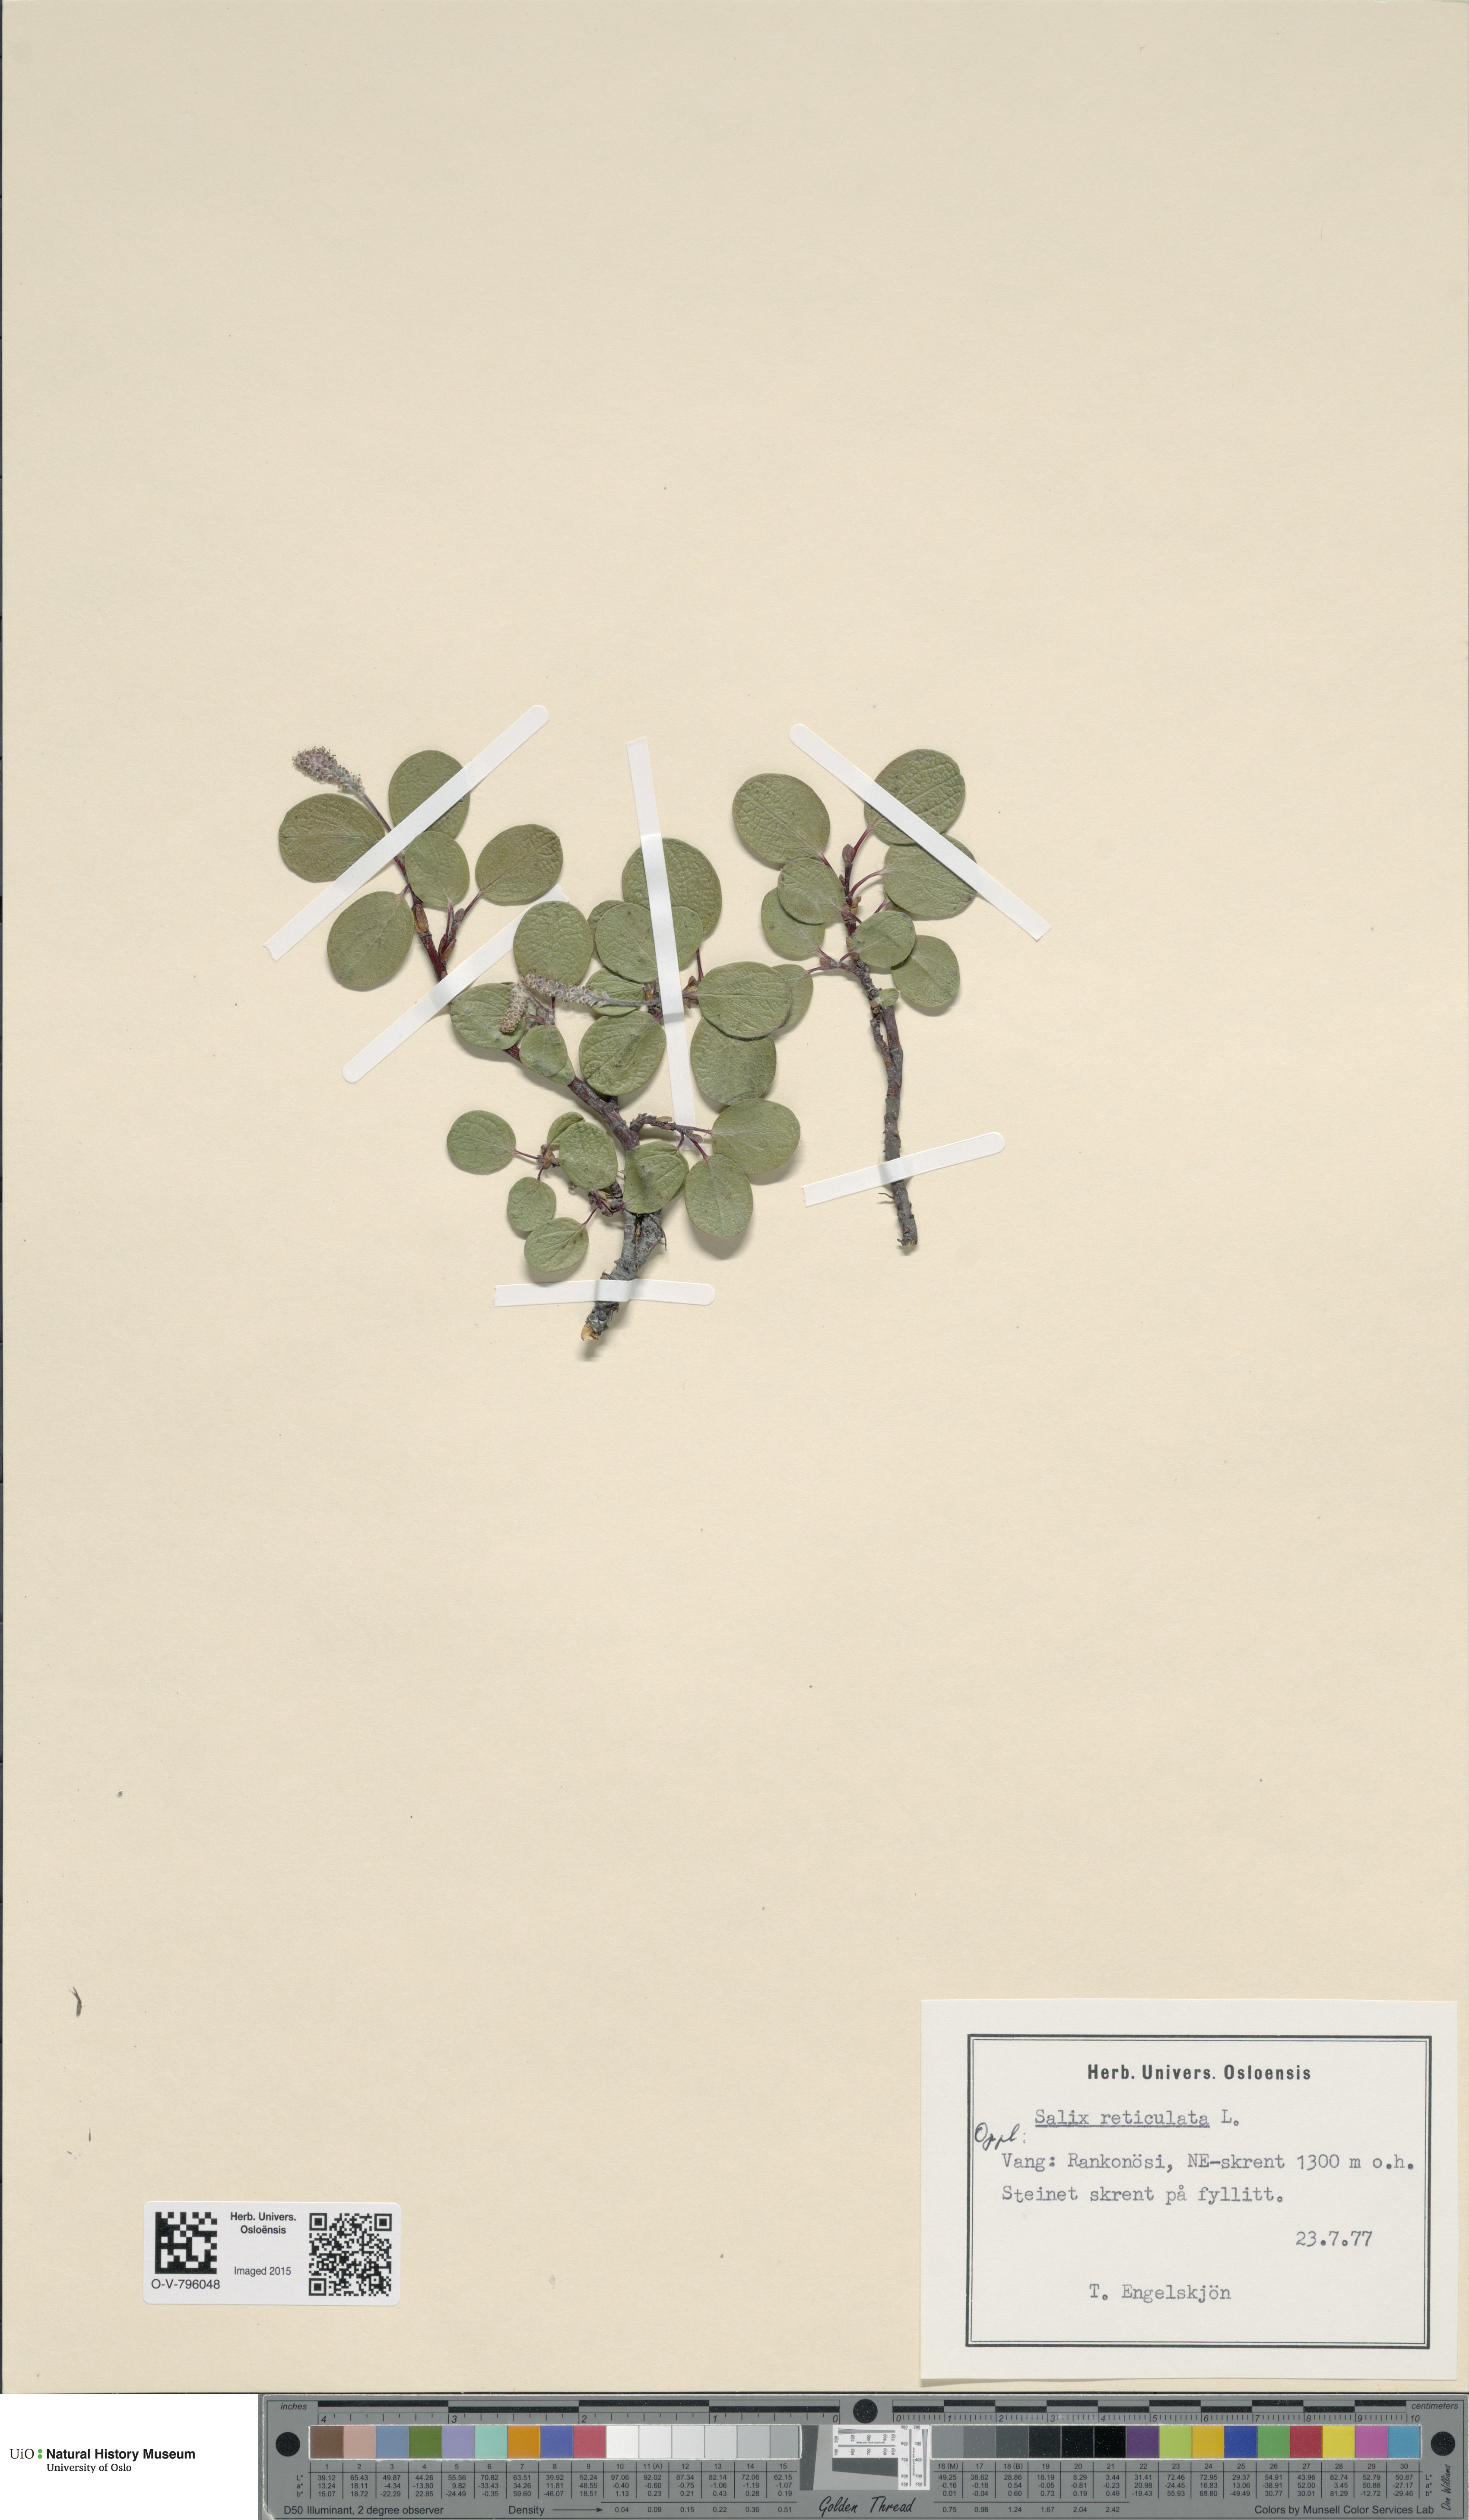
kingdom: Plantae
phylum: Tracheophyta
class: Magnoliopsida
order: Malpighiales
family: Salicaceae
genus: Salix
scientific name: Salix reticulata
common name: Net-leaved willow
